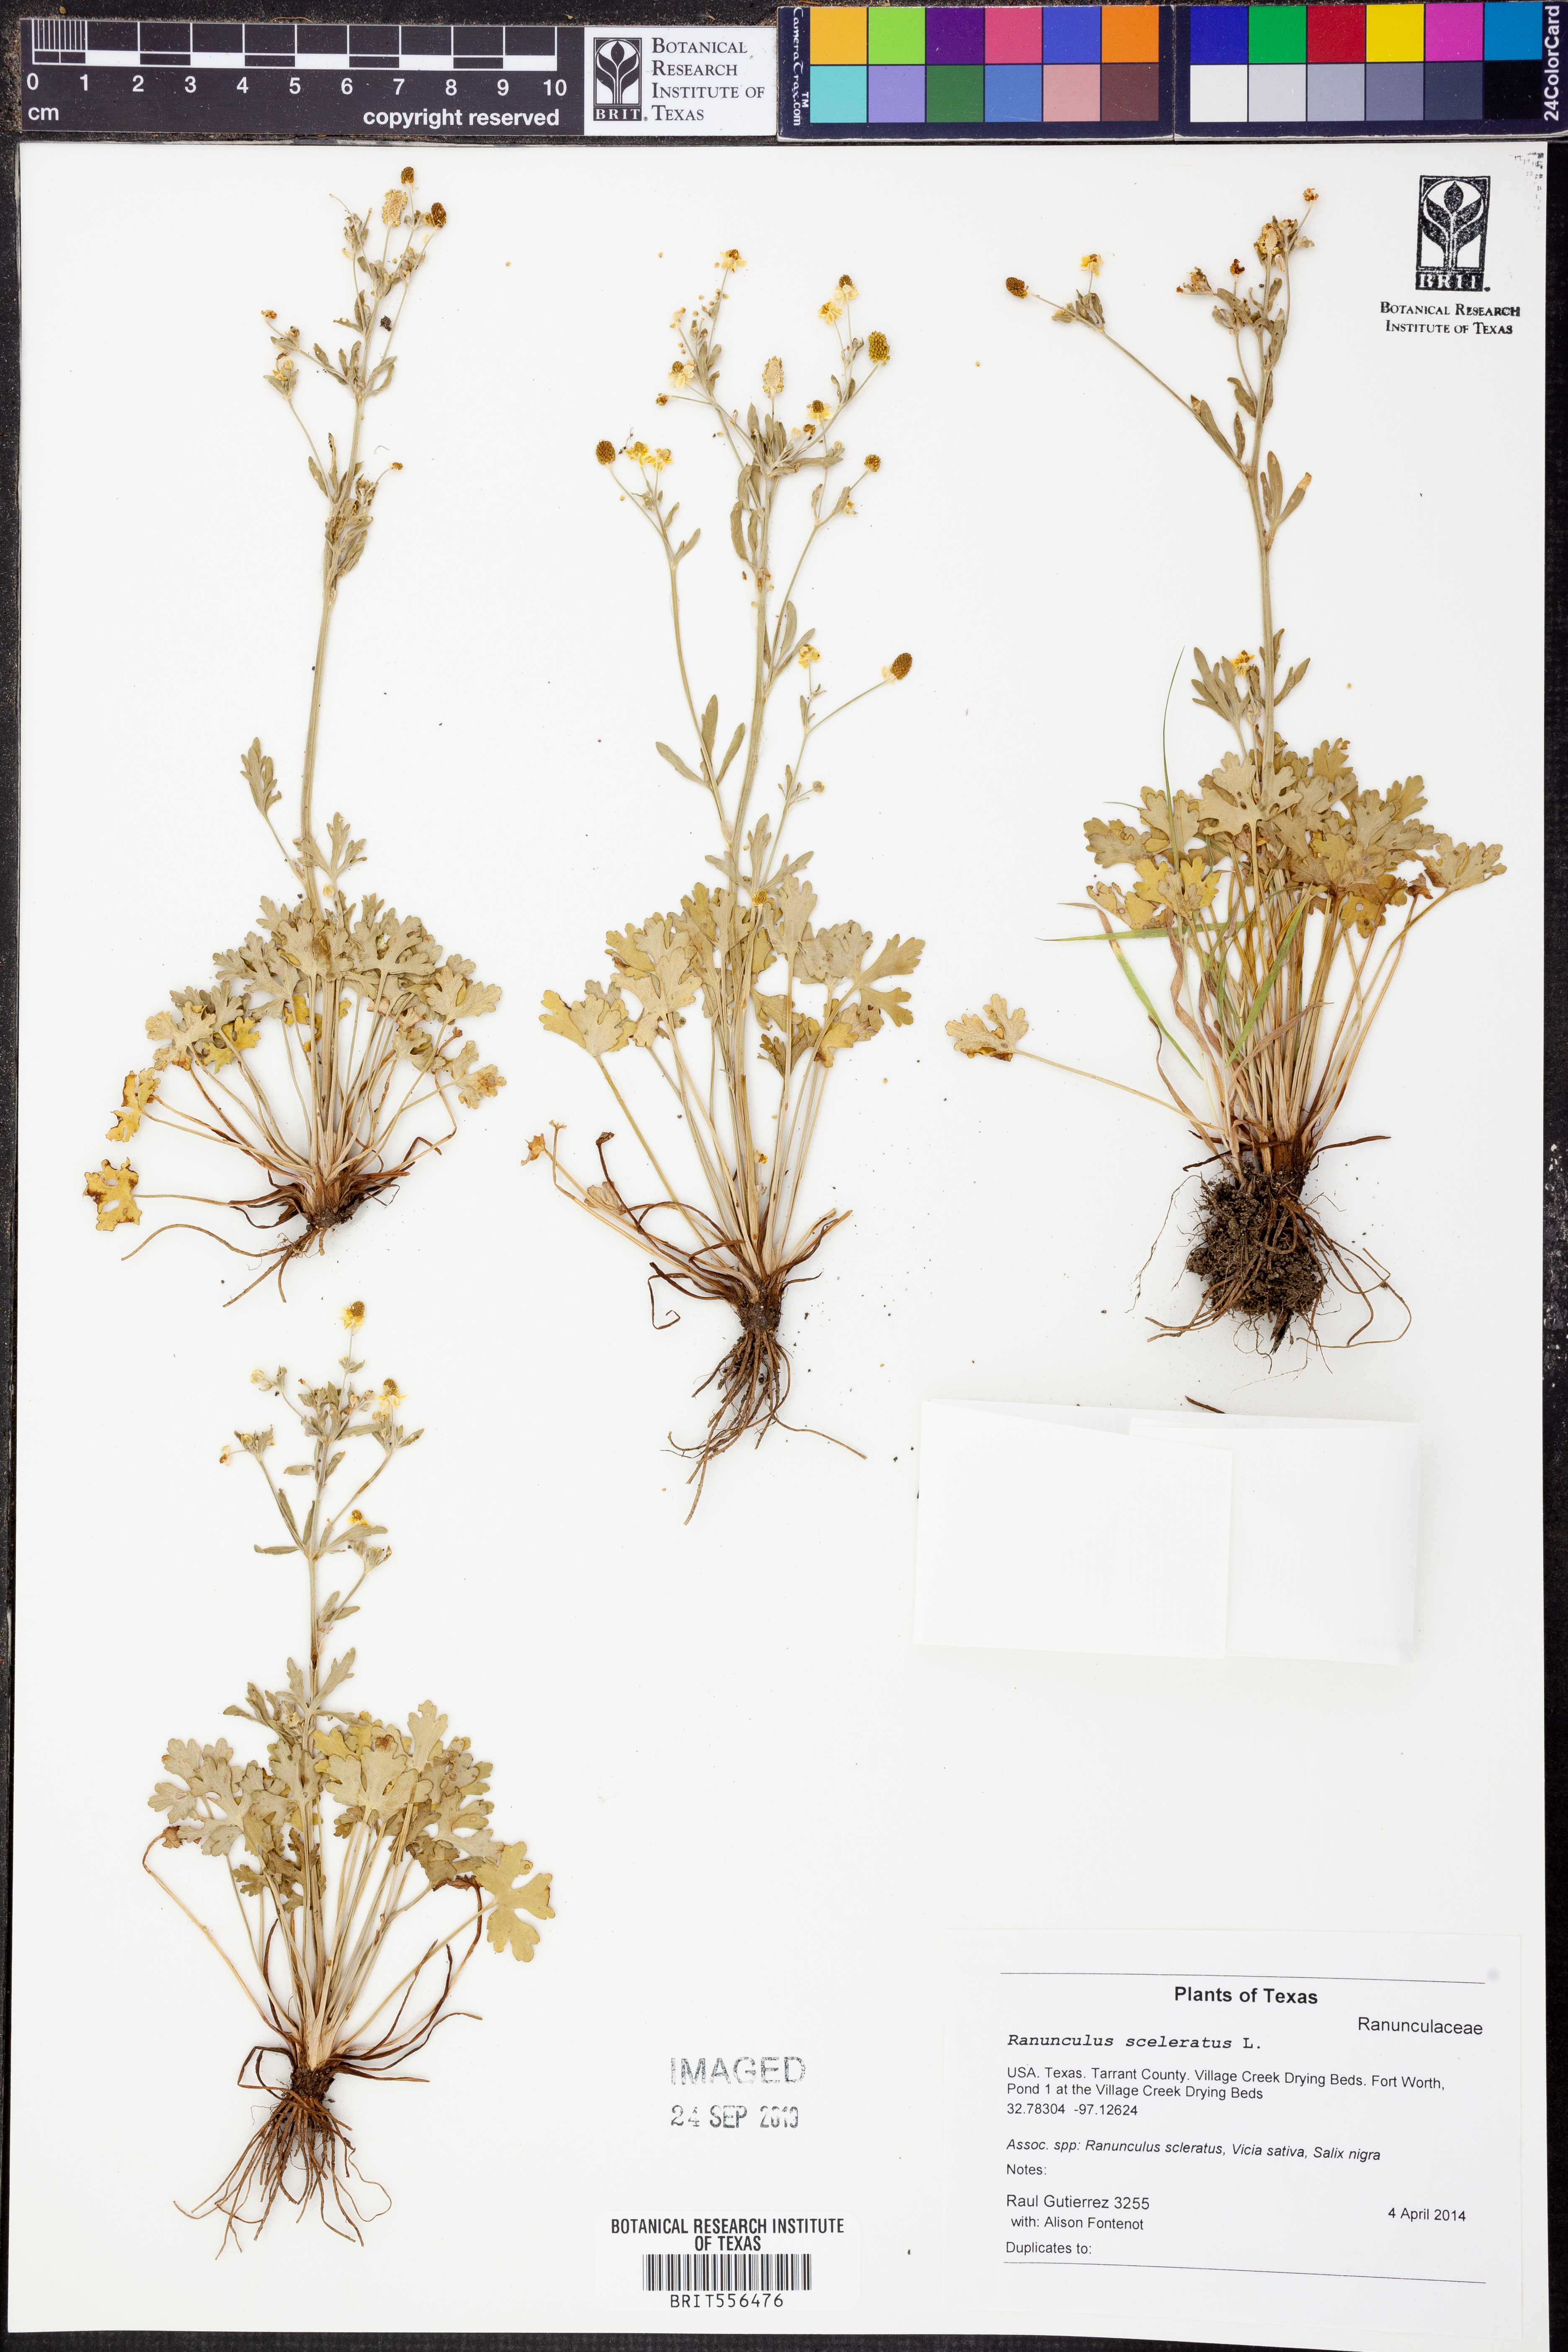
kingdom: Plantae
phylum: Tracheophyta
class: Magnoliopsida
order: Ranunculales
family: Ranunculaceae
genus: Ranunculus
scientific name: Ranunculus sceleratus
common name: Celery-leaved buttercup
